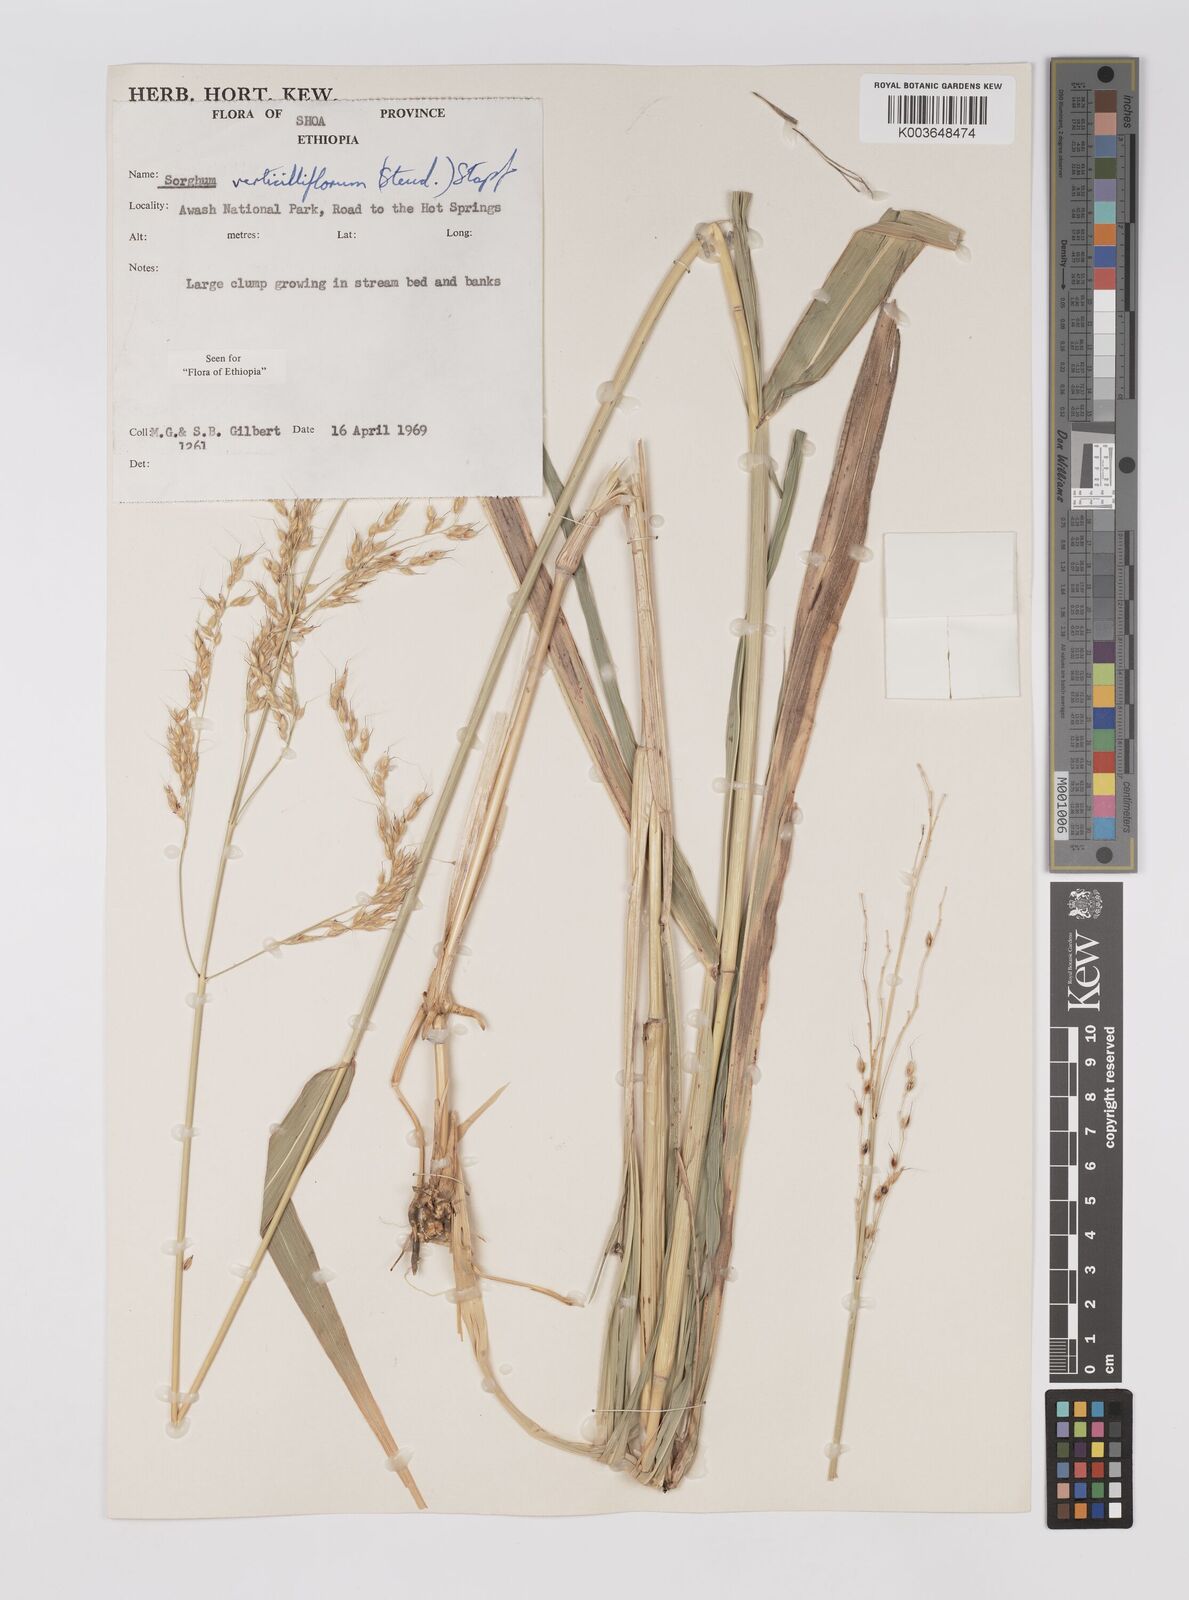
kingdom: Plantae
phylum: Tracheophyta
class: Liliopsida
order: Poales
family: Poaceae
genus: Sorghum
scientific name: Sorghum arundinaceum
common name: Sorghum
